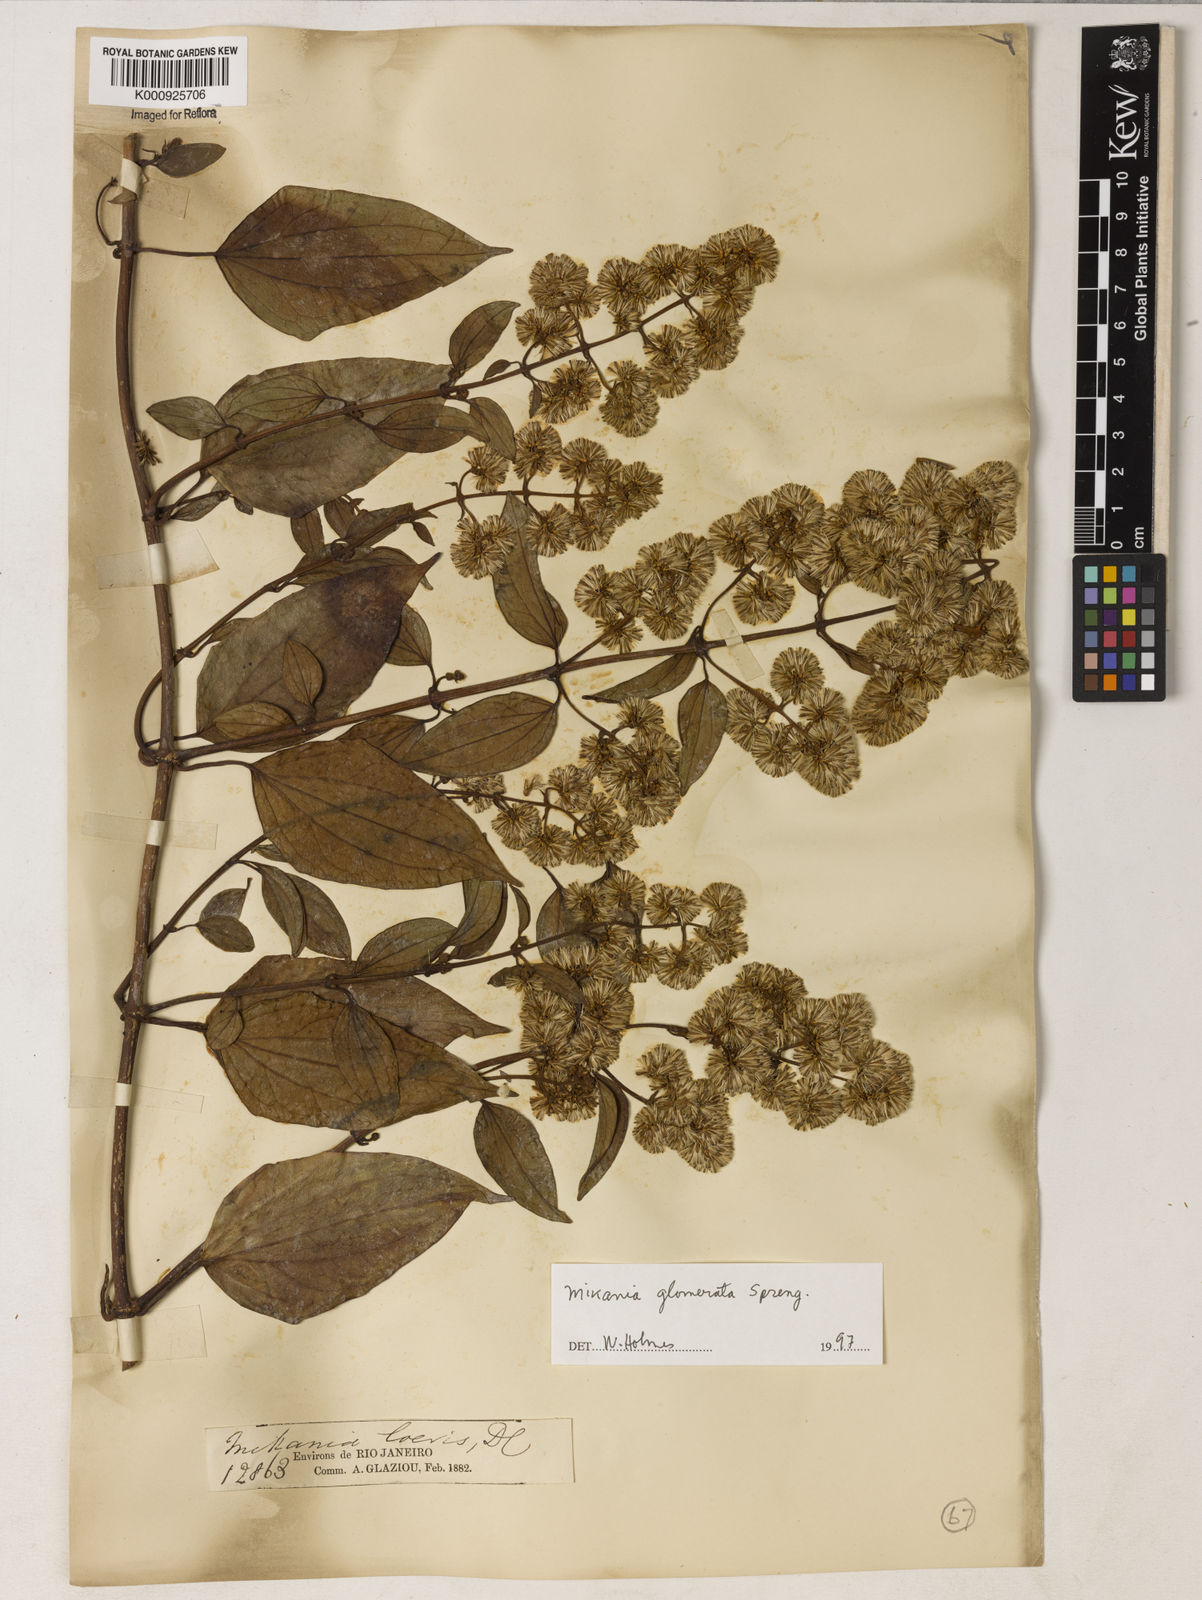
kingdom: Plantae
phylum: Tracheophyta
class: Magnoliopsida
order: Asterales
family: Asteraceae
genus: Mikania
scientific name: Mikania trinervis
